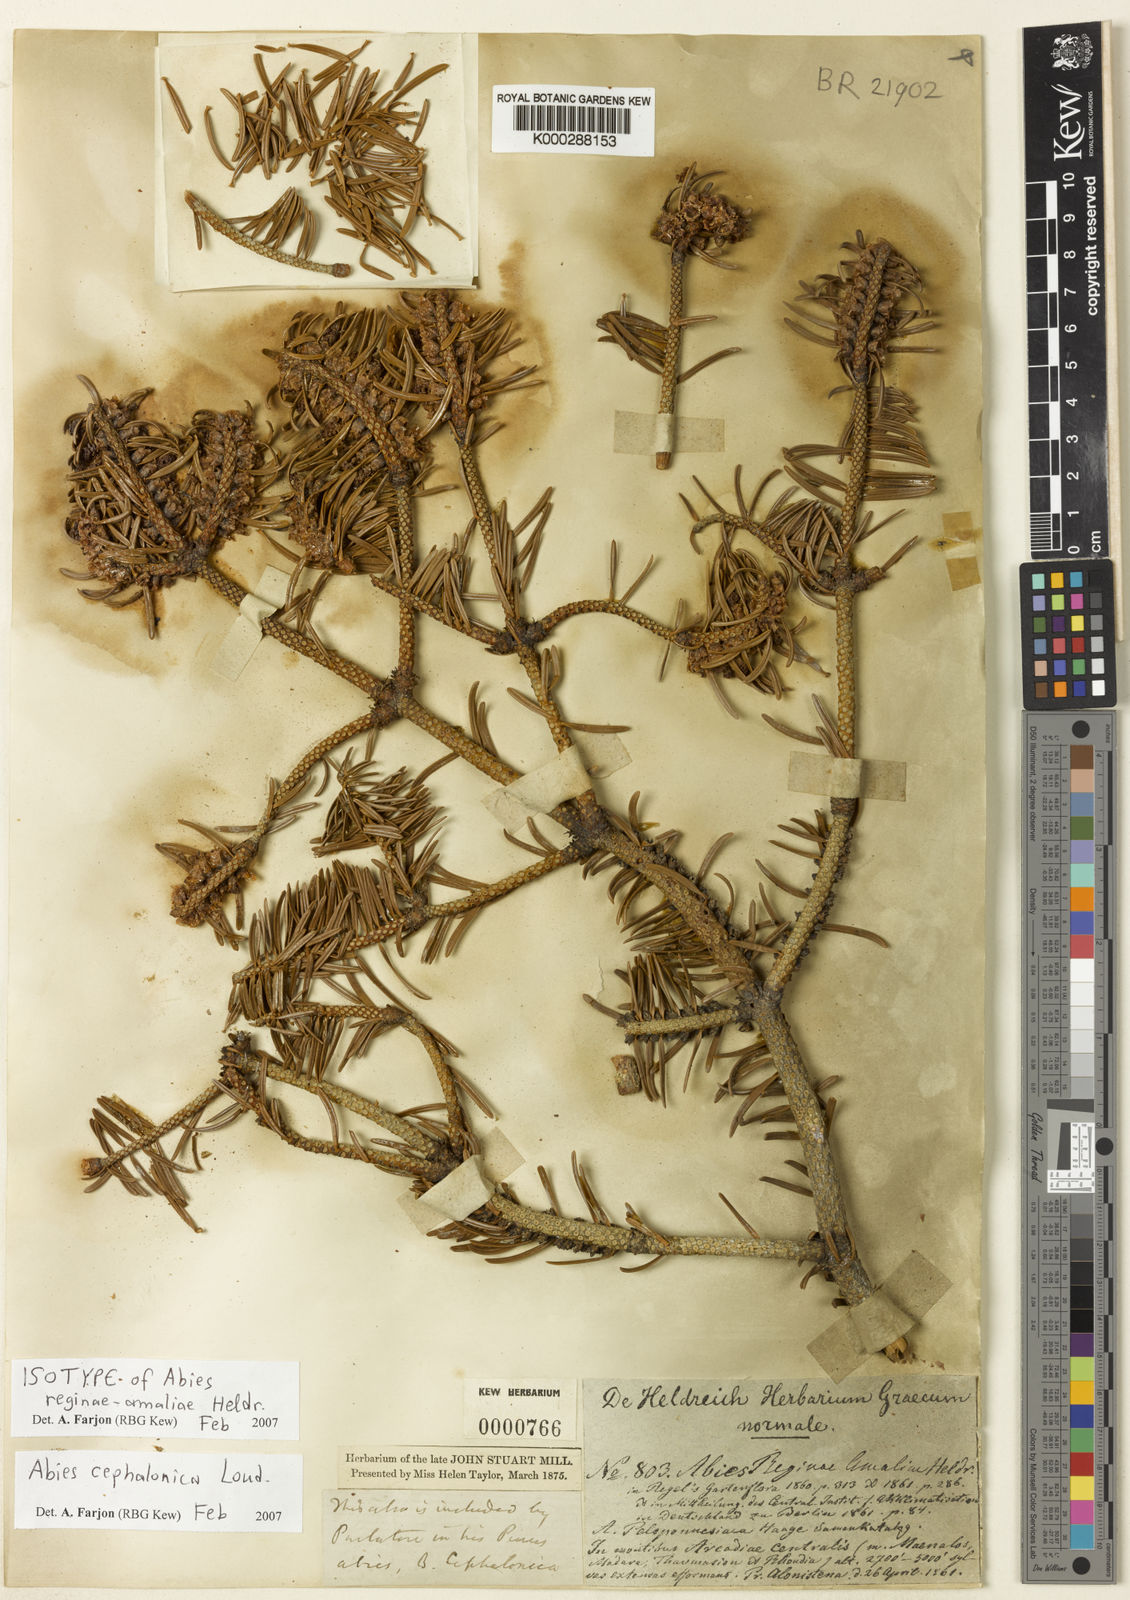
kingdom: Plantae
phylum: Tracheophyta
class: Pinopsida
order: Pinales
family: Pinaceae
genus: Abies
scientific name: Abies cephalonica
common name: Greek fir
